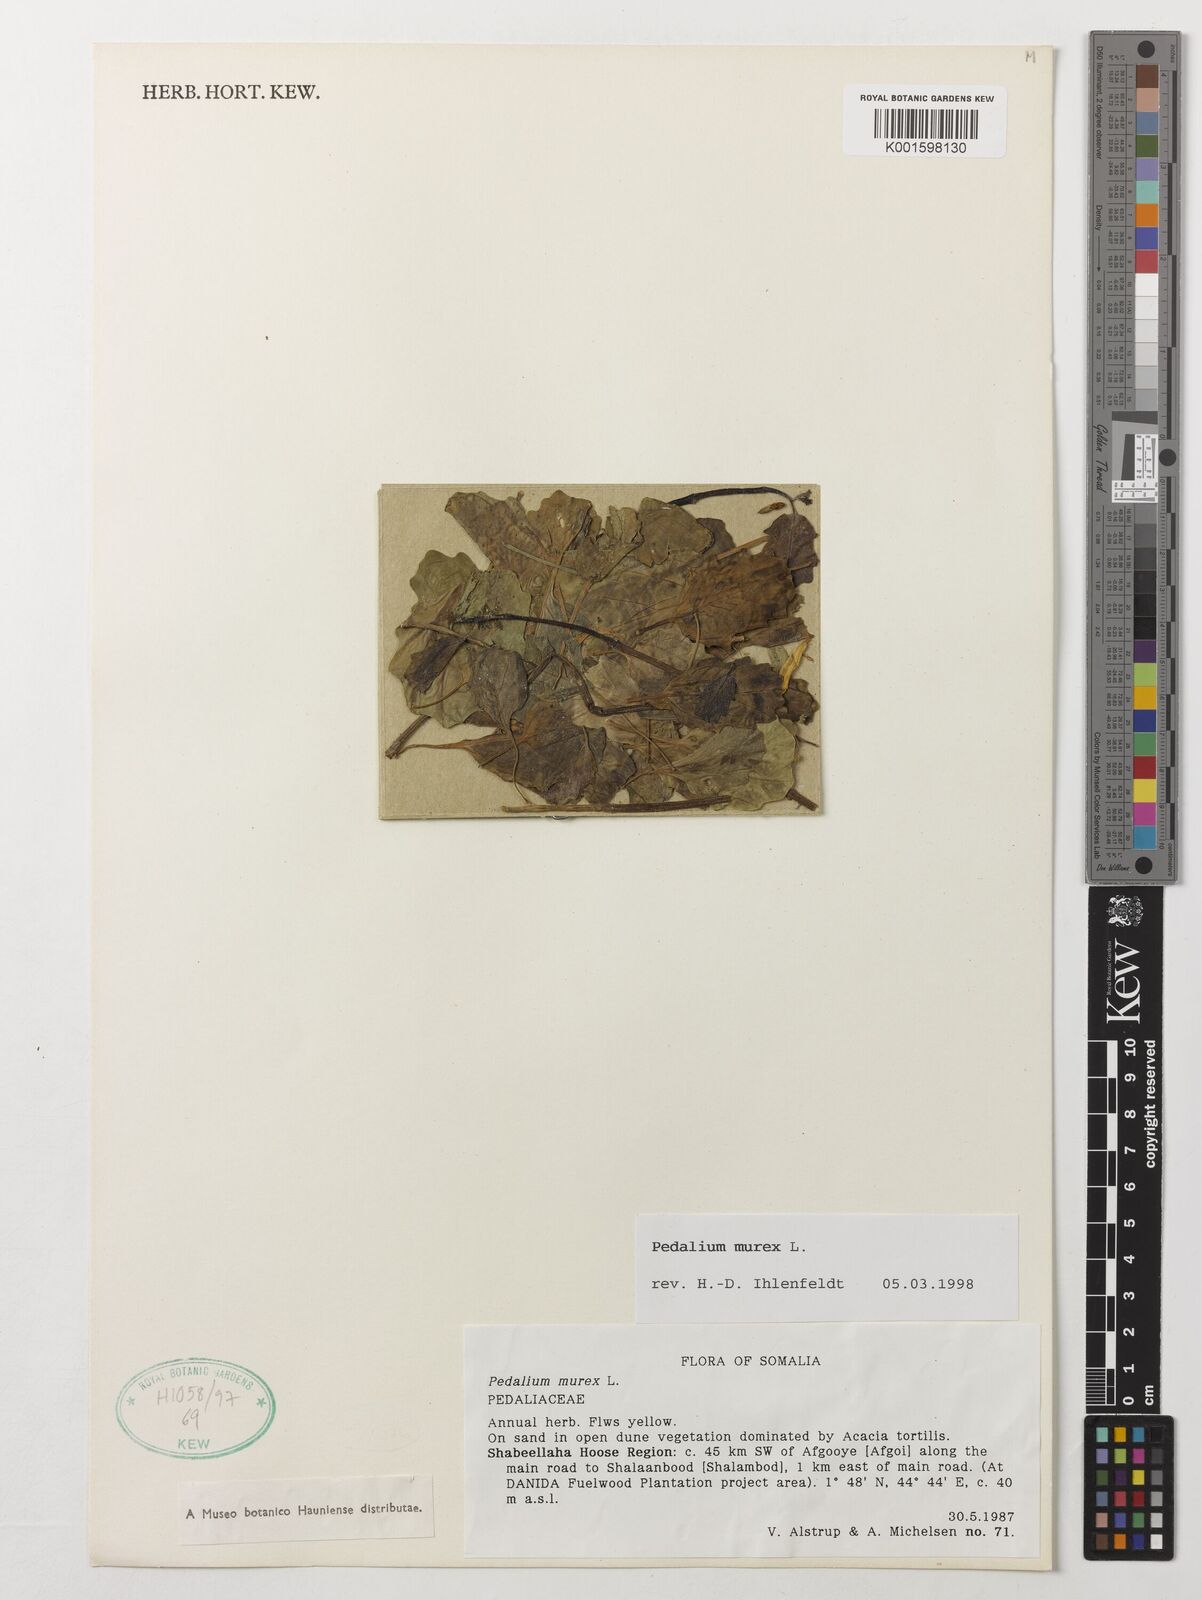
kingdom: Plantae
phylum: Tracheophyta
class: Magnoliopsida
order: Lamiales
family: Pedaliaceae
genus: Pedalium
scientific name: Pedalium murex
